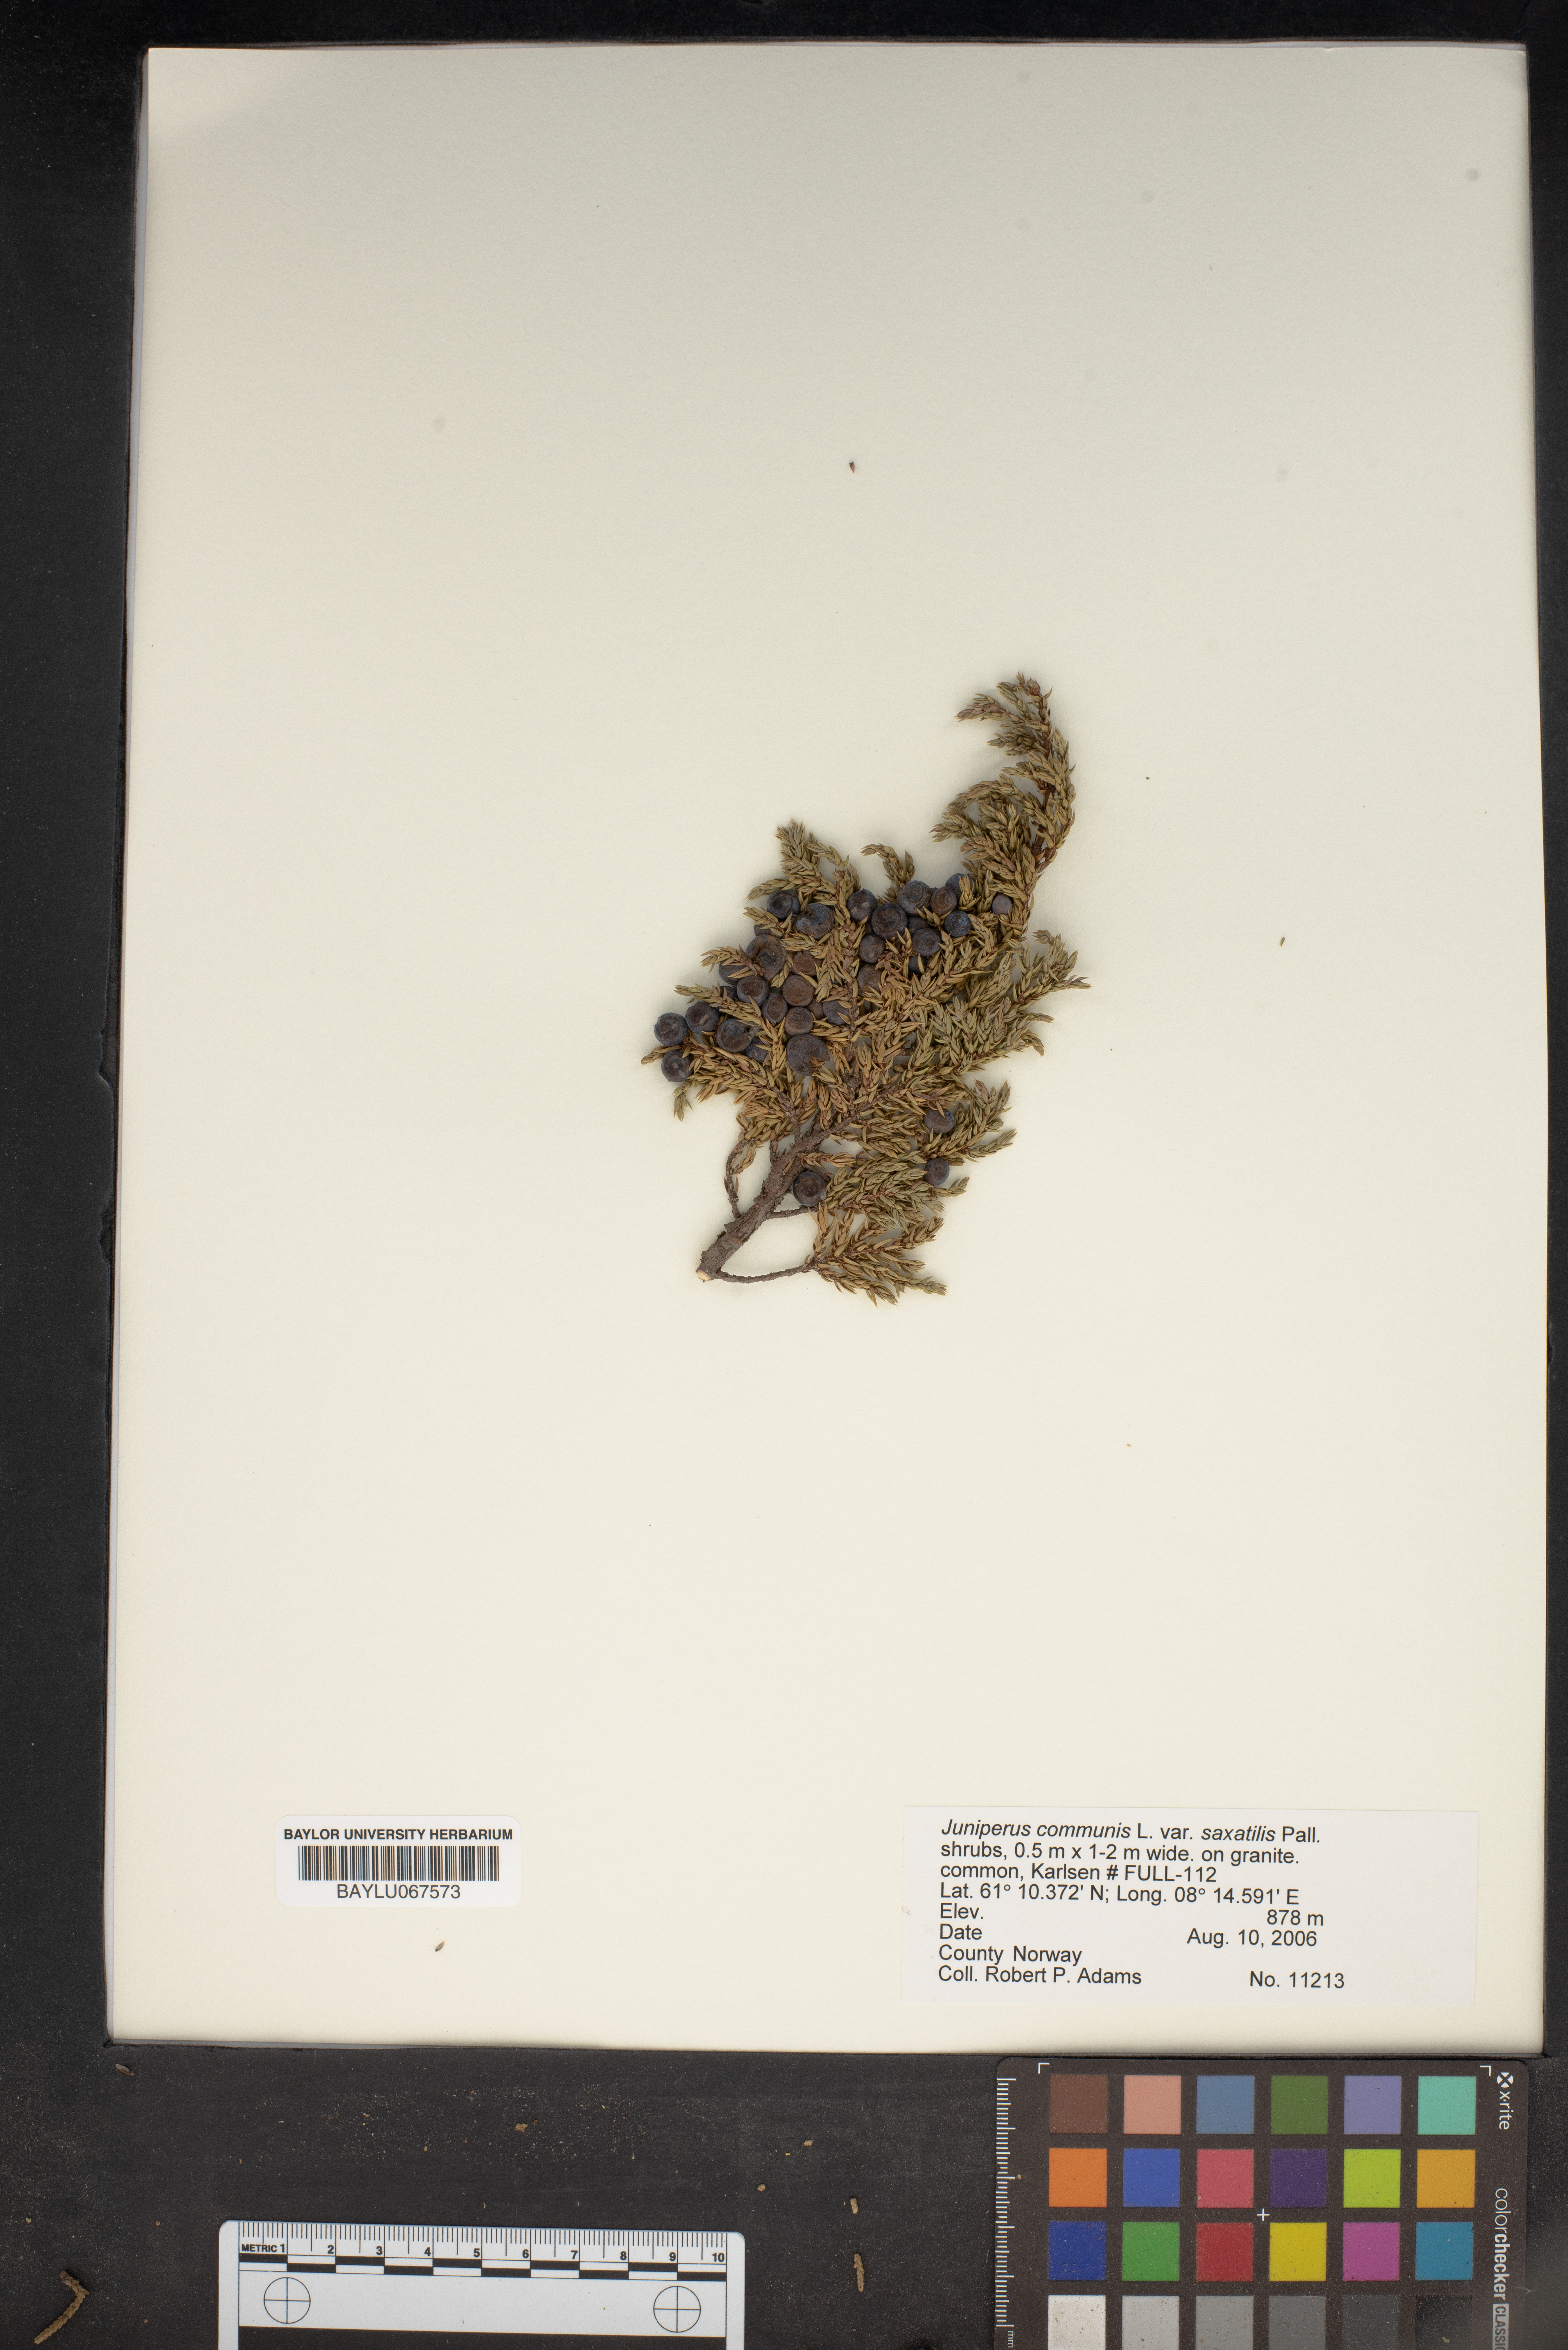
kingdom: Plantae
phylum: Tracheophyta
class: Pinopsida
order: Pinales
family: Cupressaceae
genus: Juniperus
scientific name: Juniperus communis
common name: Common juniper
